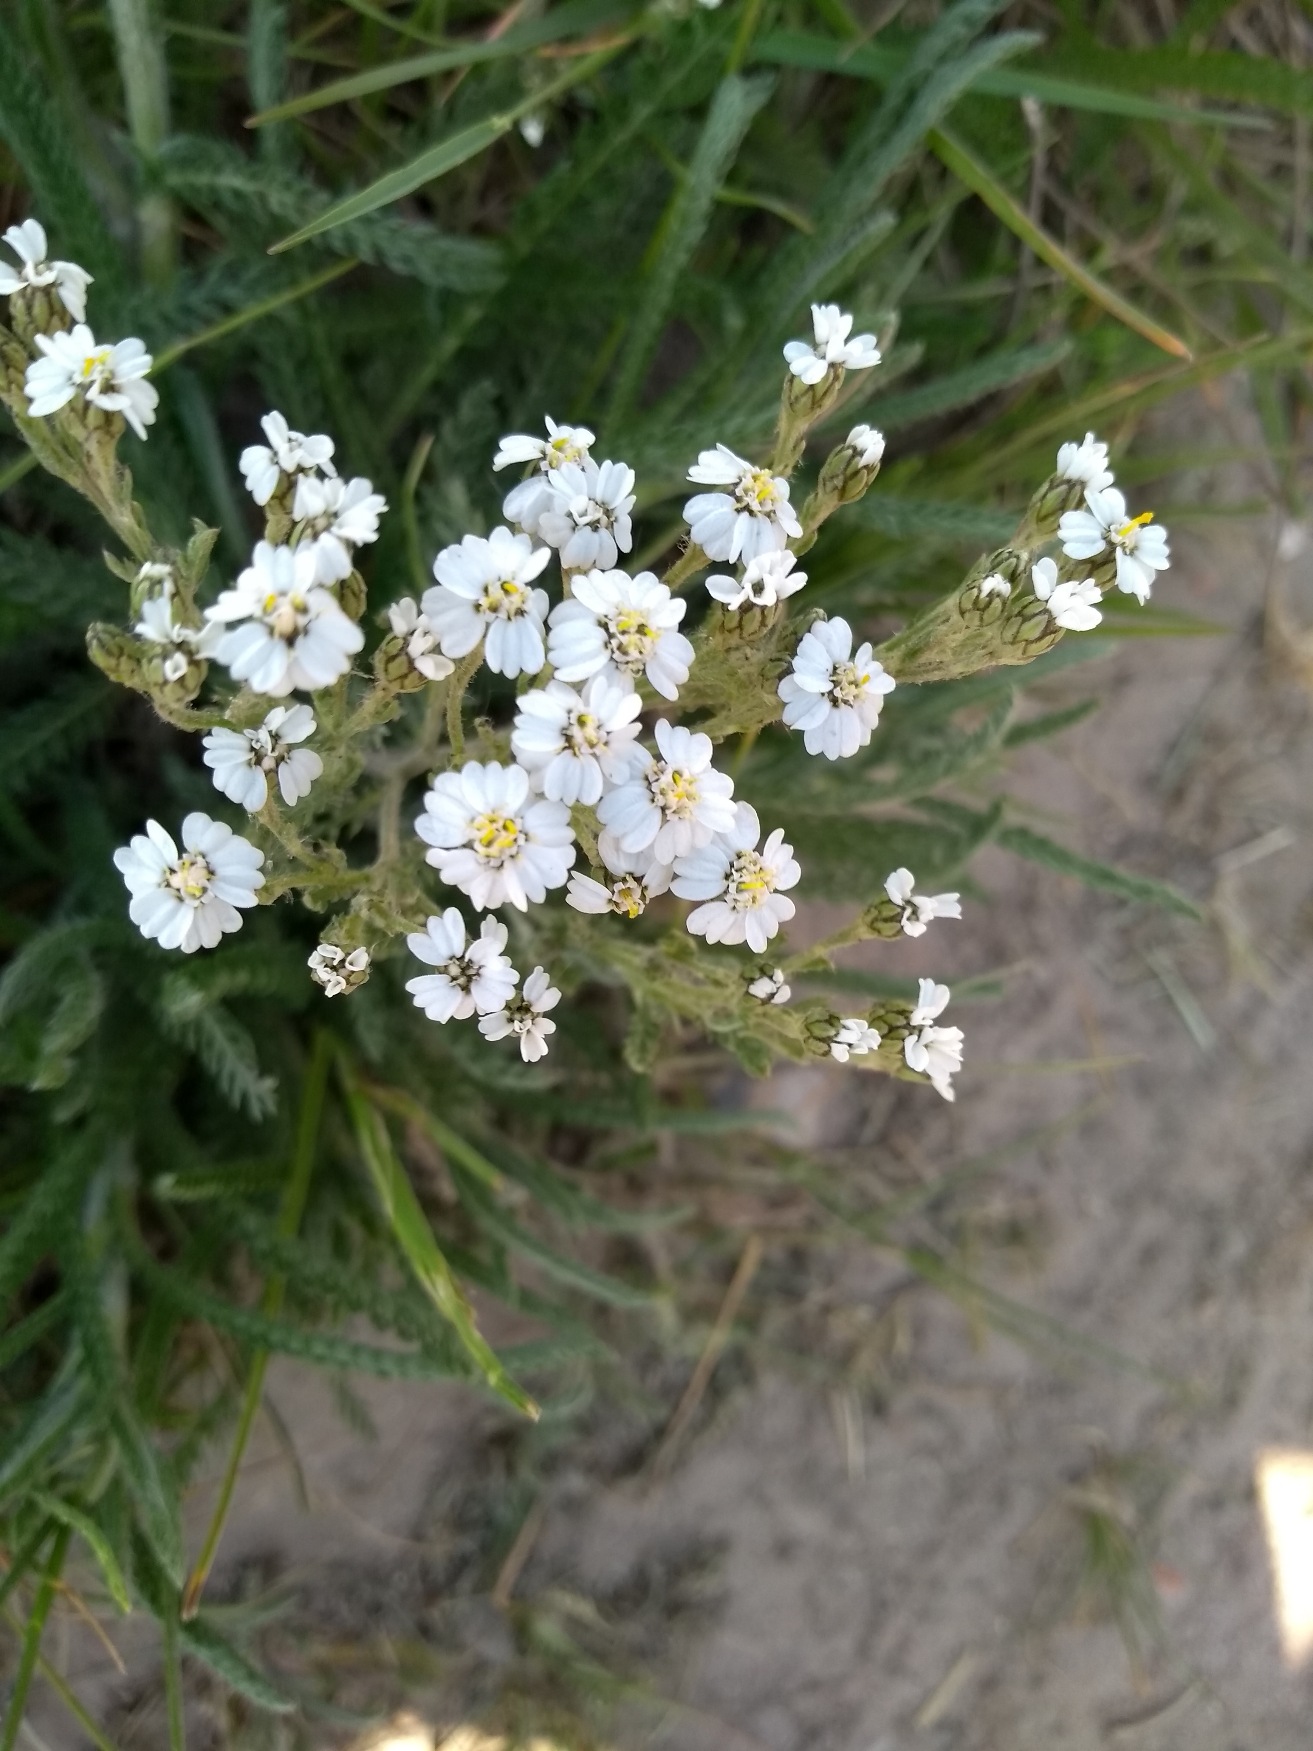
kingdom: Plantae
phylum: Tracheophyta
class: Magnoliopsida
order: Asterales
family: Asteraceae
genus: Achillea
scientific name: Achillea
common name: Røllikeslægten
